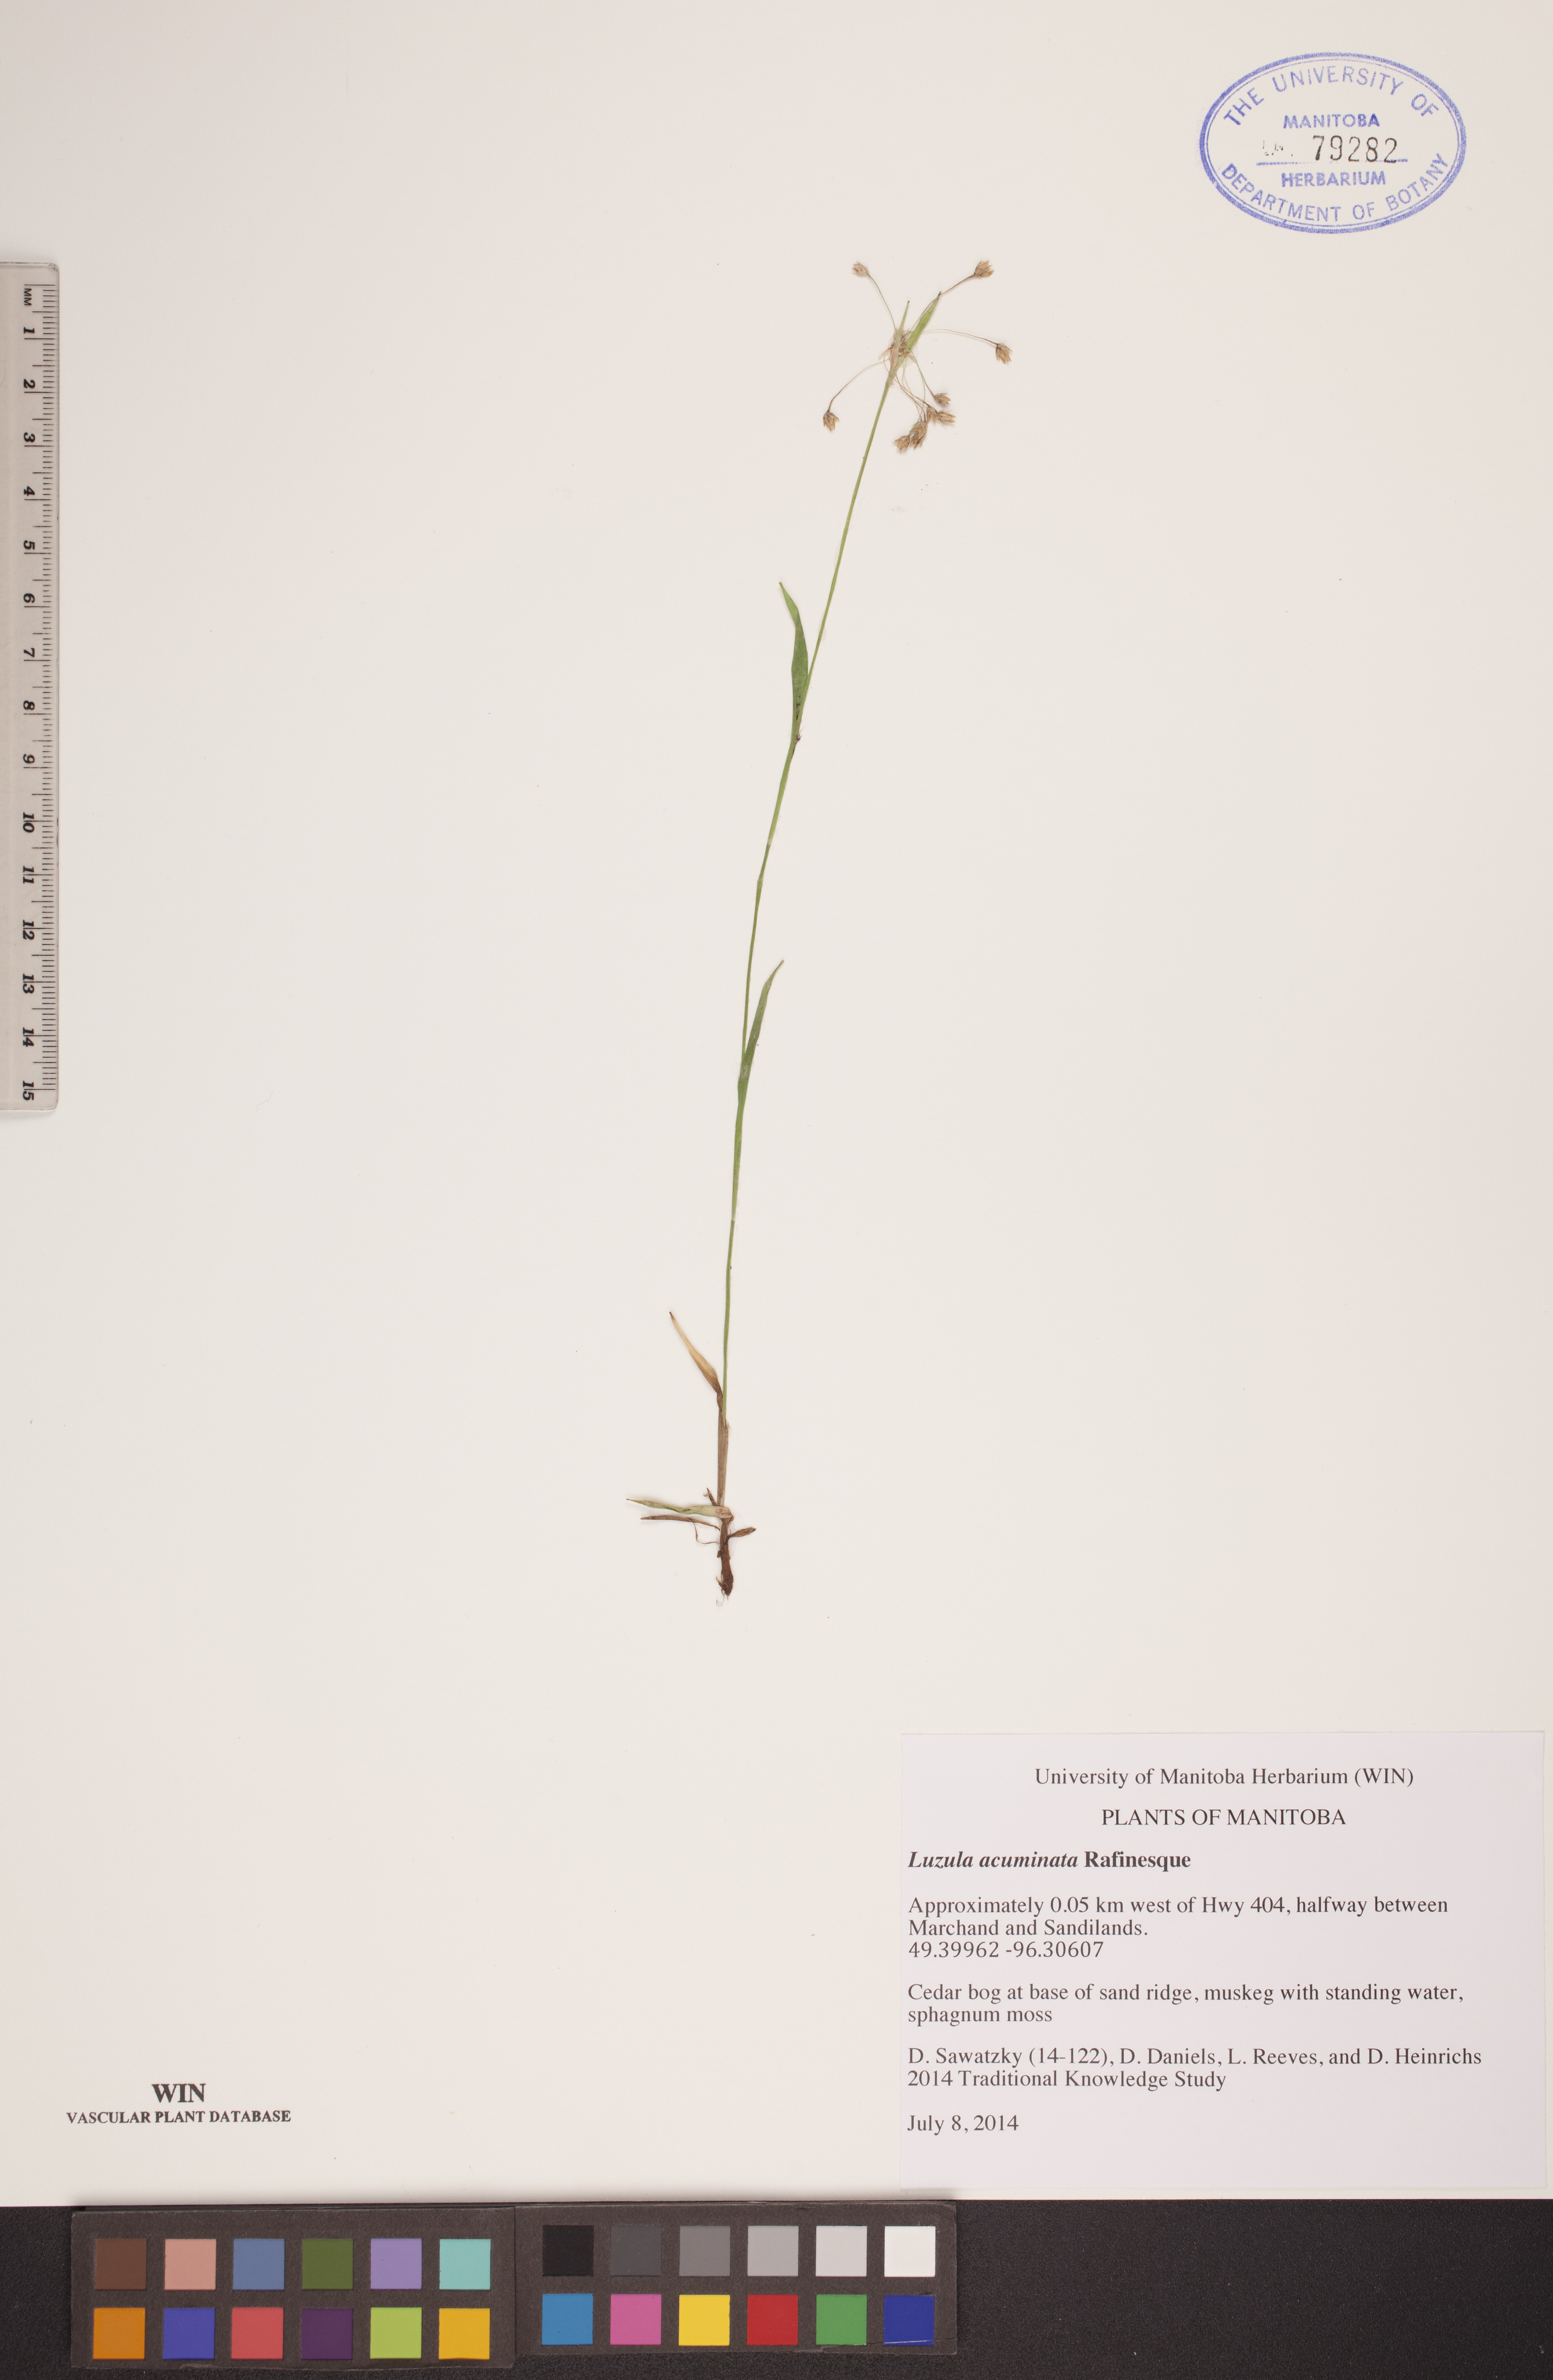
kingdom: Plantae
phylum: Tracheophyta
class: Liliopsida
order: Poales
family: Juncaceae
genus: Luzula
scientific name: Luzula acuminata
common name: Hairy woodrush
